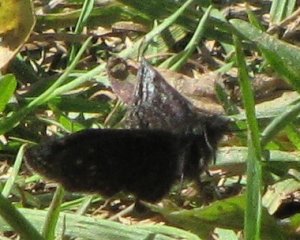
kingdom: Animalia
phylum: Arthropoda
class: Insecta
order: Lepidoptera
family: Hesperiidae
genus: Erynnis
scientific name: Erynnis icelus
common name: Dreamy Duskywing
